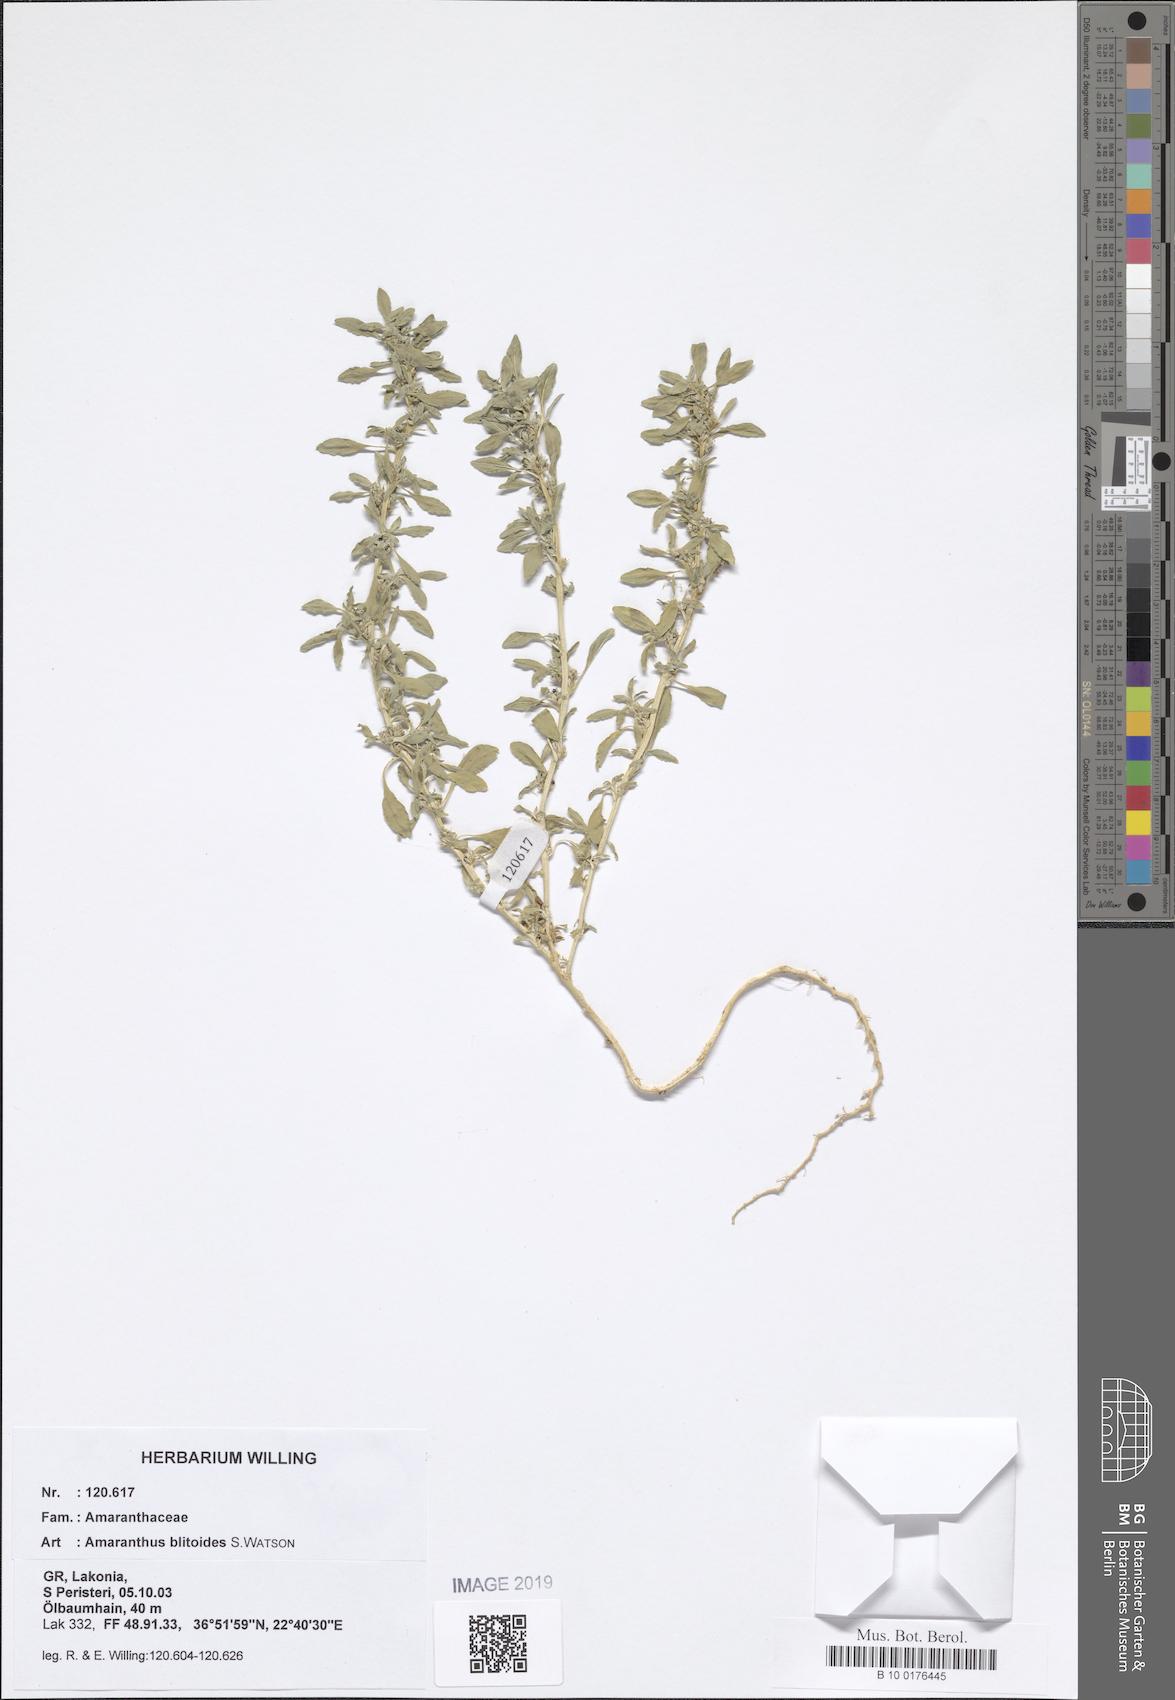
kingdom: Plantae
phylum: Tracheophyta
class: Magnoliopsida
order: Caryophyllales
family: Amaranthaceae
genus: Amaranthus
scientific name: Amaranthus blitoides
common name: Prostrate pigweed
